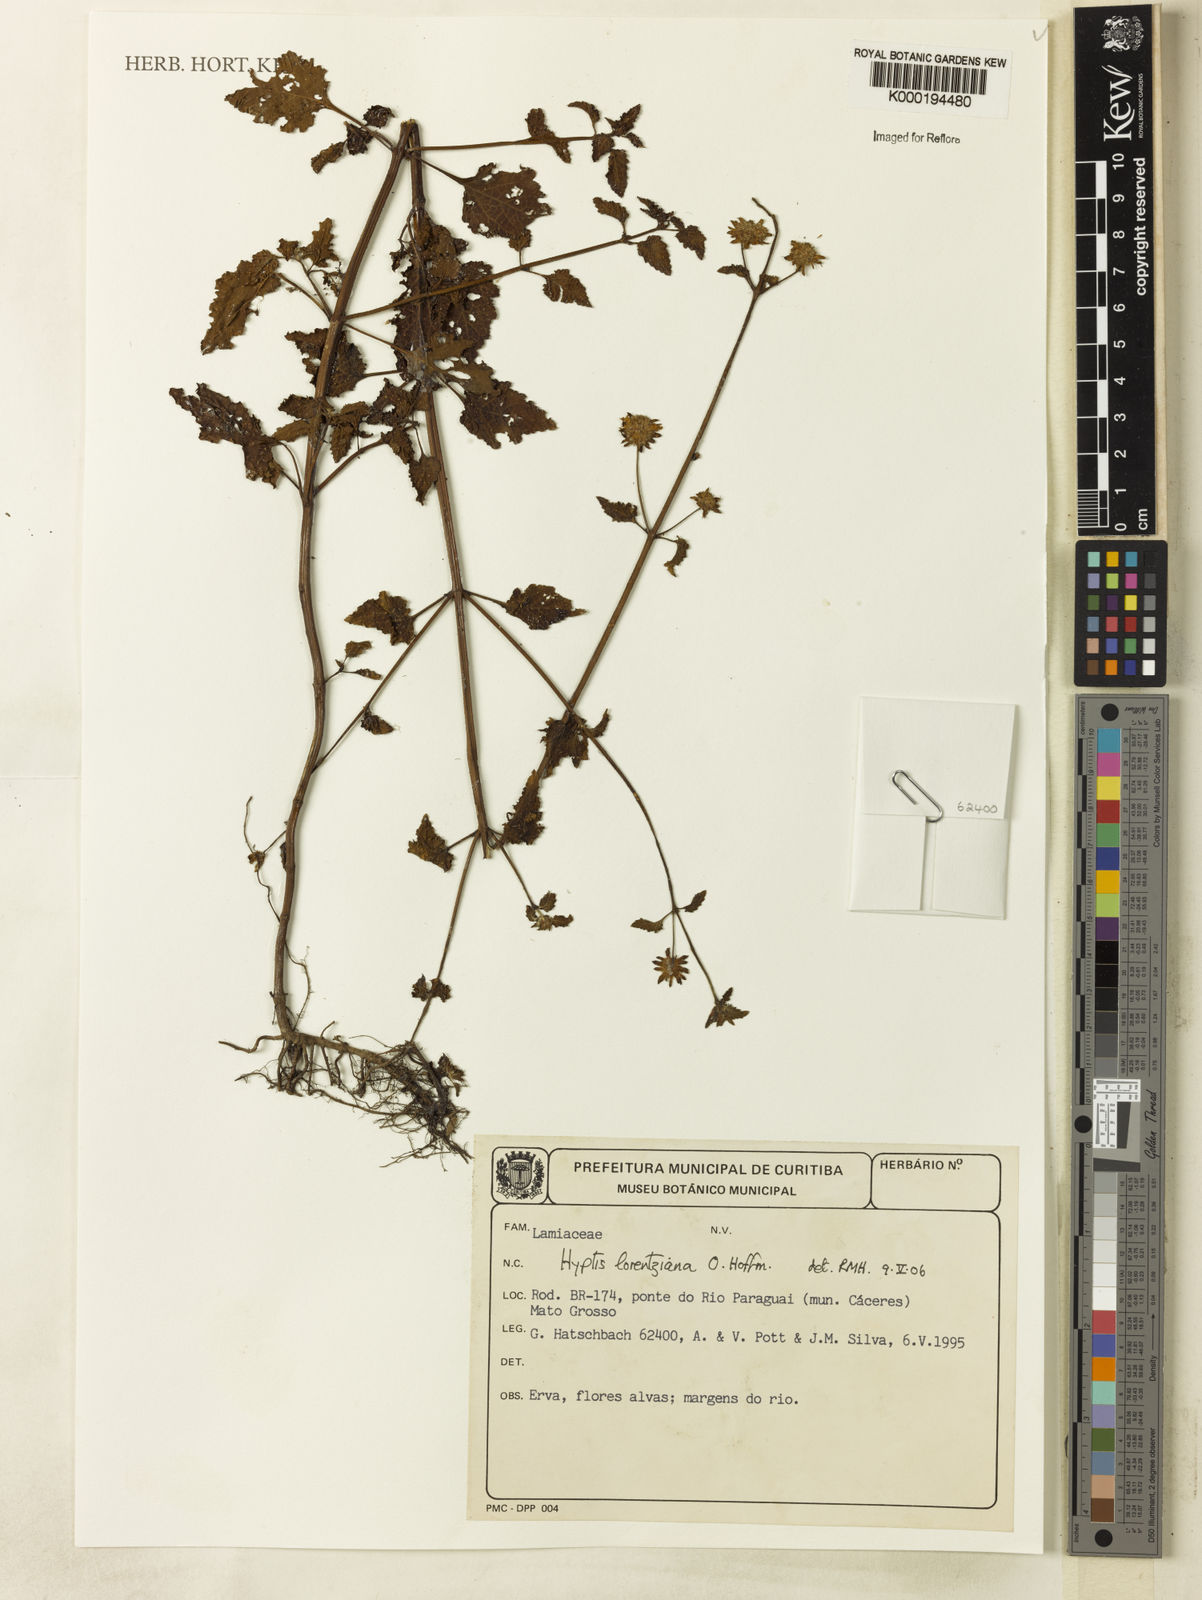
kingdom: Plantae
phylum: Tracheophyta
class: Magnoliopsida
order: Lamiales
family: Lamiaceae
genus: Hyptis
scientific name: Hyptis lorentziana
